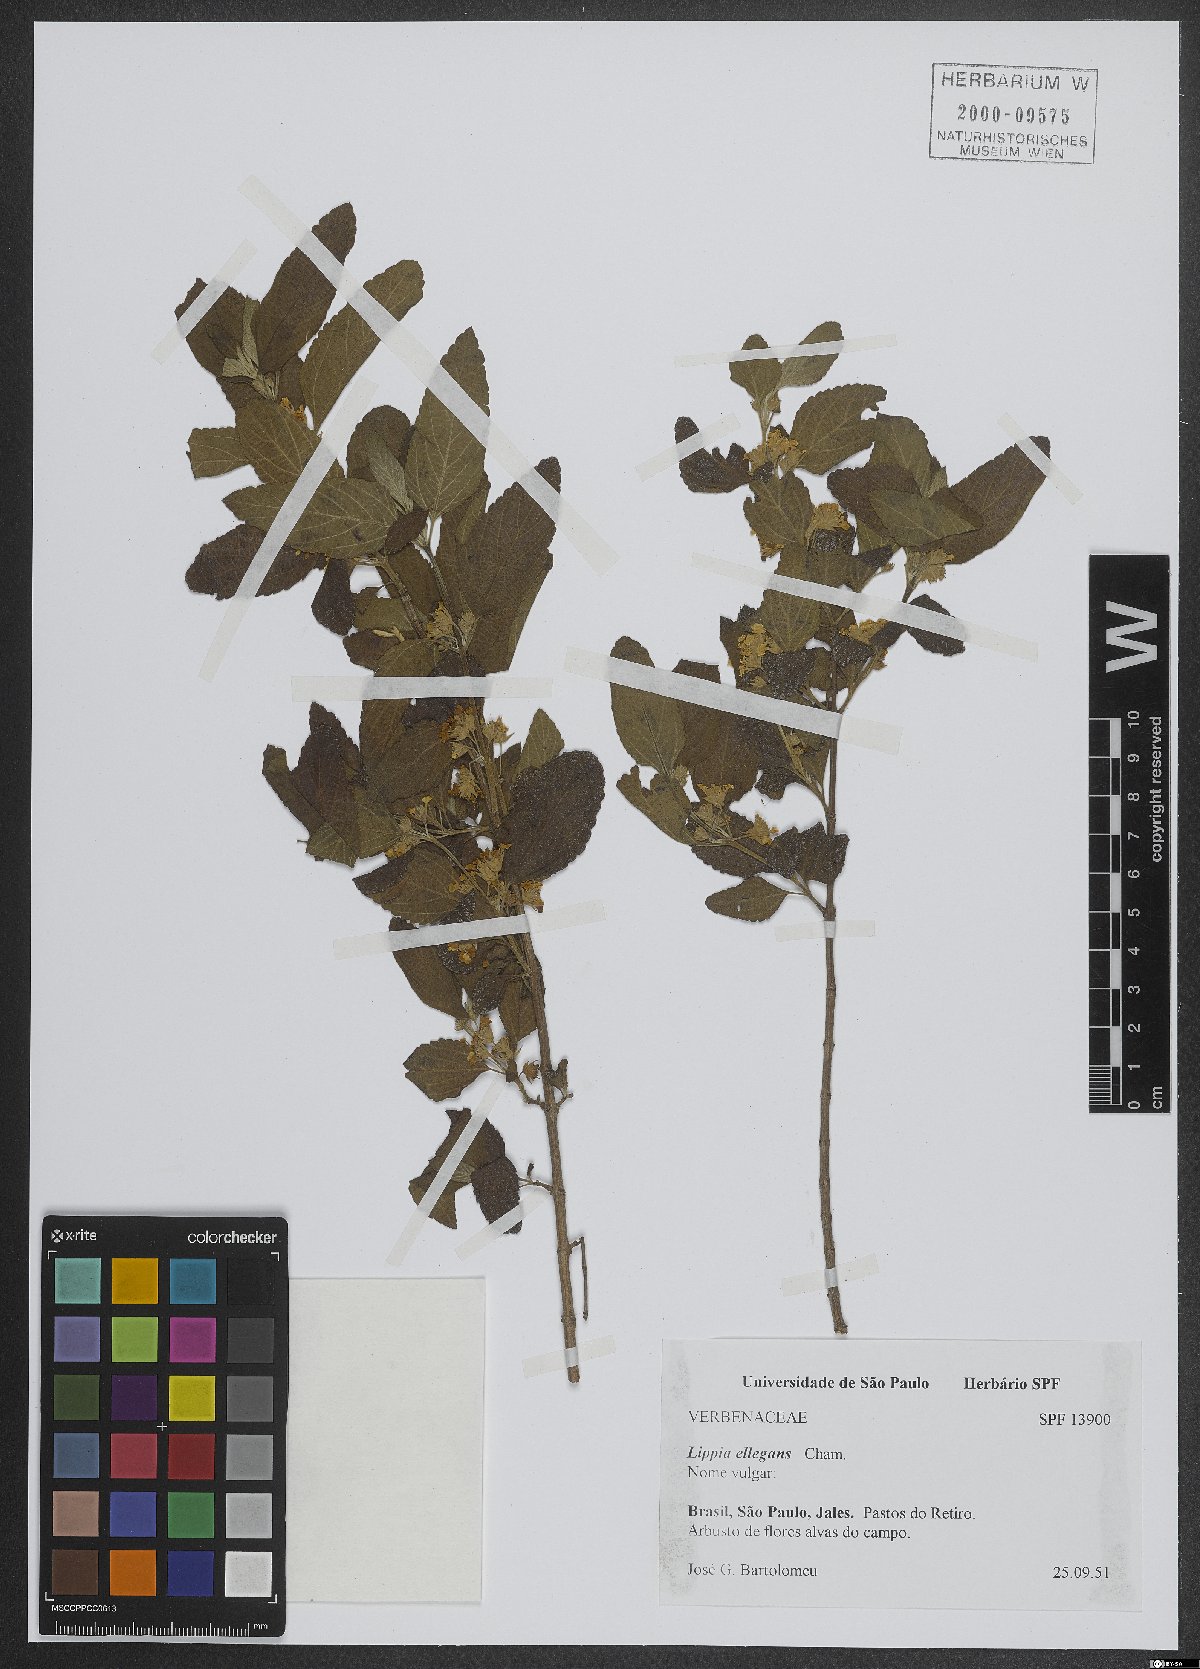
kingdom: Plantae
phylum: Tracheophyta
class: Magnoliopsida
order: Lamiales
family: Verbenaceae
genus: Lippia
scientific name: Lippia origanoides
